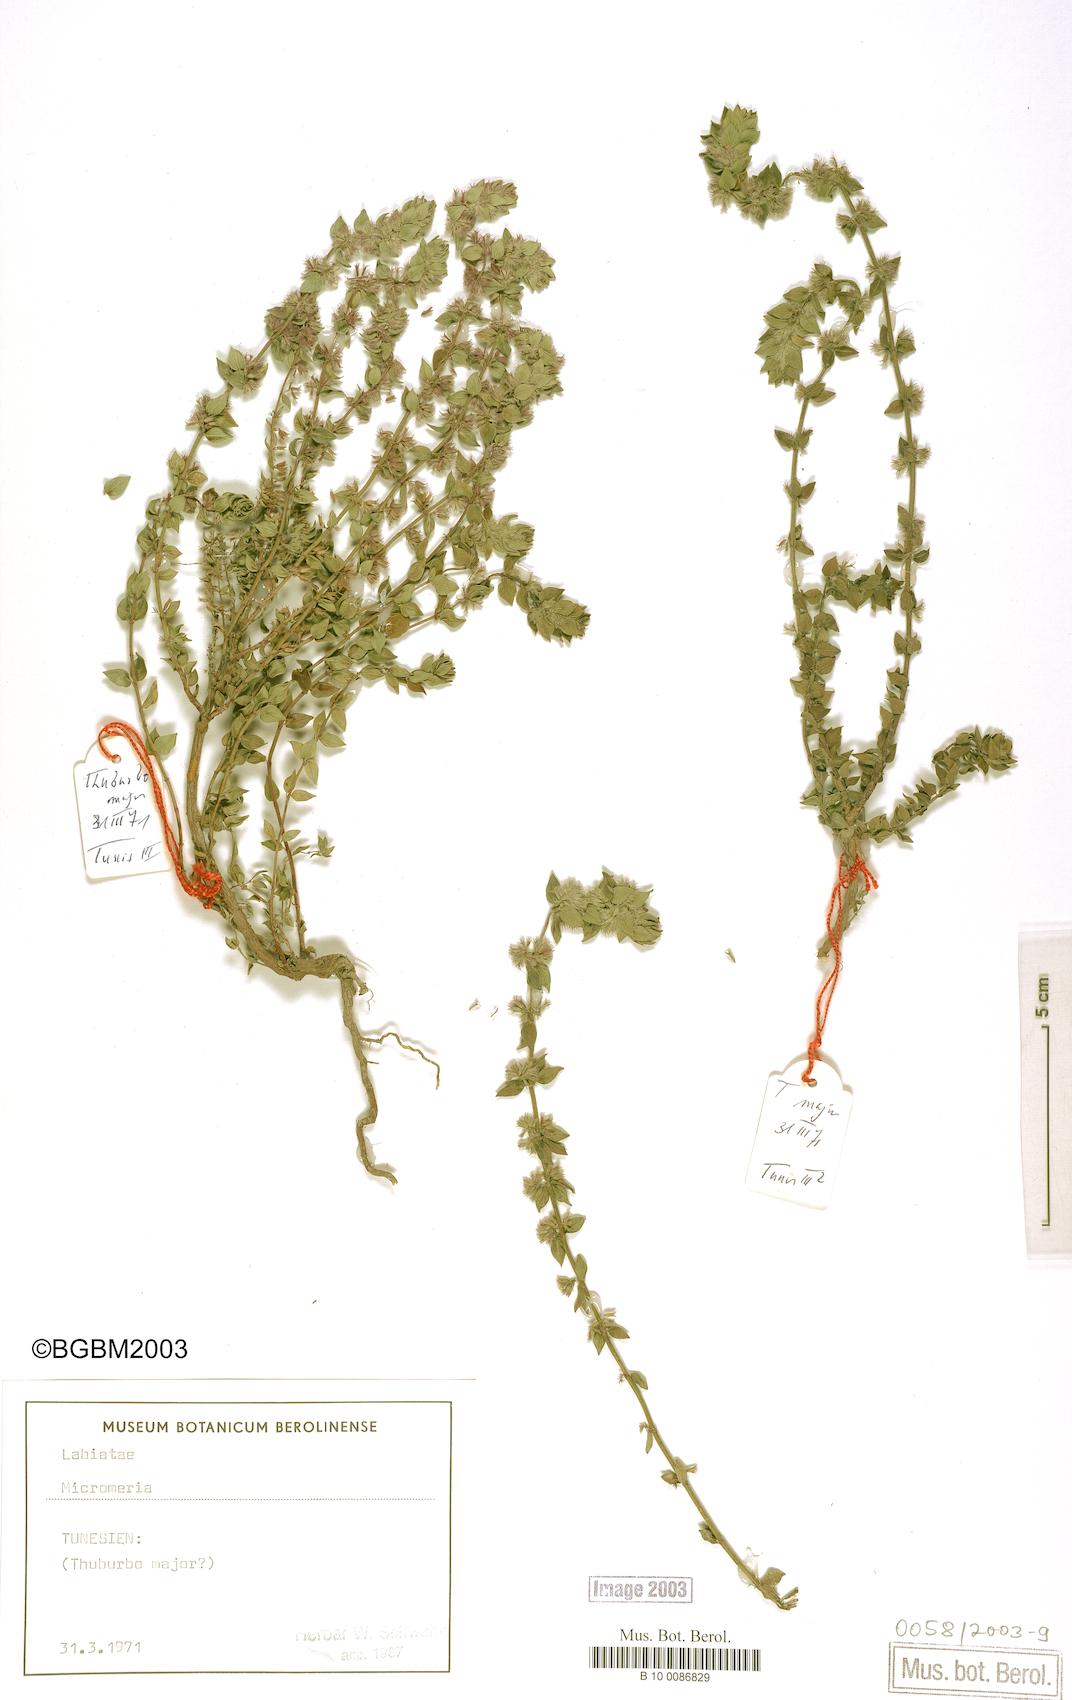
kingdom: Plantae
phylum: Tracheophyta
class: Magnoliopsida
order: Lamiales
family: Lamiaceae
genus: Micromeria
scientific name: Micromeria
